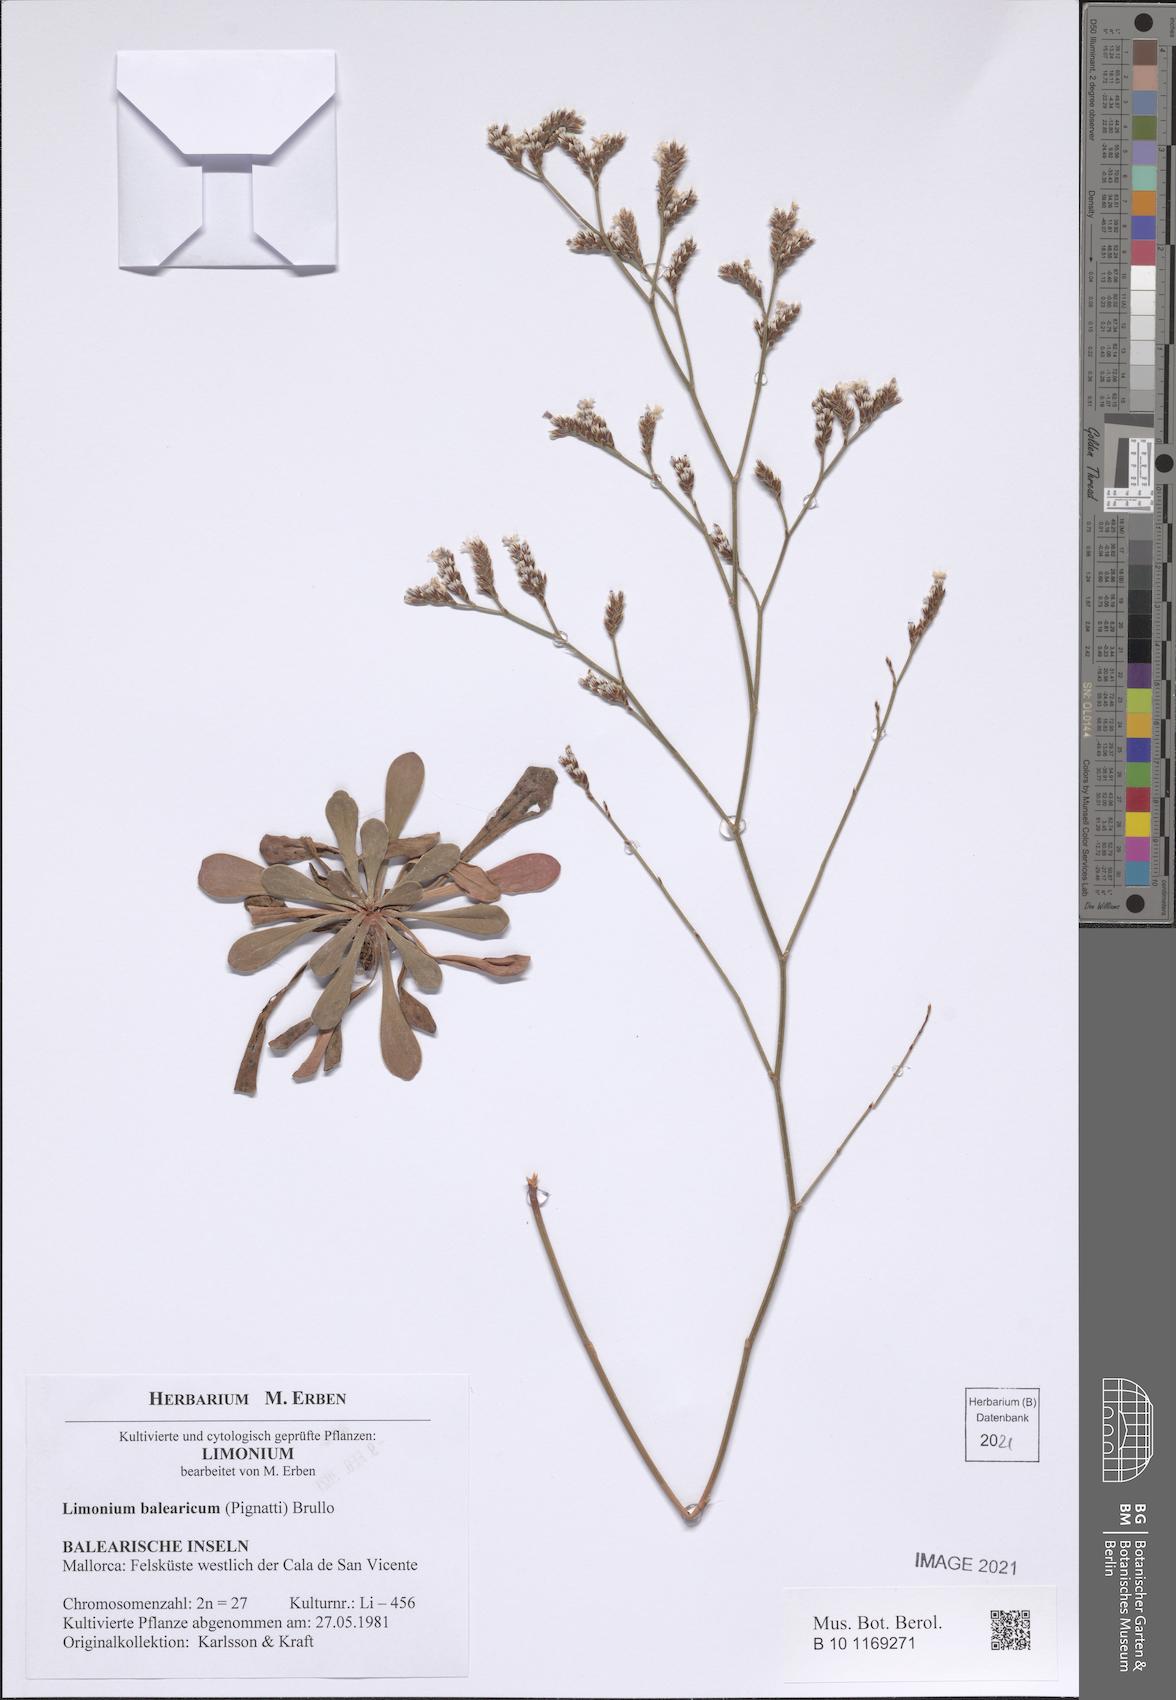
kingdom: Plantae
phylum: Tracheophyta
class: Magnoliopsida
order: Caryophyllales
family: Plumbaginaceae
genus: Limonium
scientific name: Limonium balearicum
